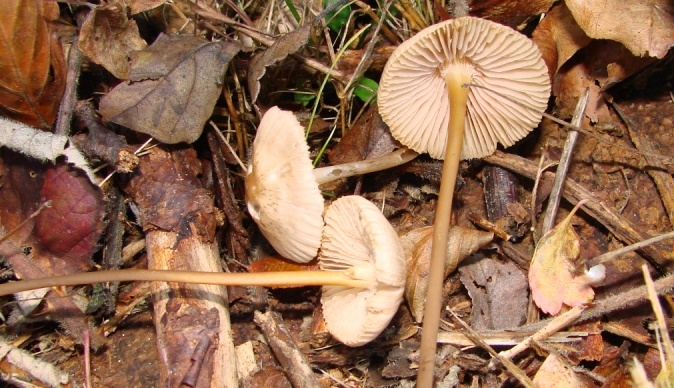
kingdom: Fungi
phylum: Basidiomycota
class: Agaricomycetes
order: Agaricales
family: Mycenaceae
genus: Mycena
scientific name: Mycena galericulata
